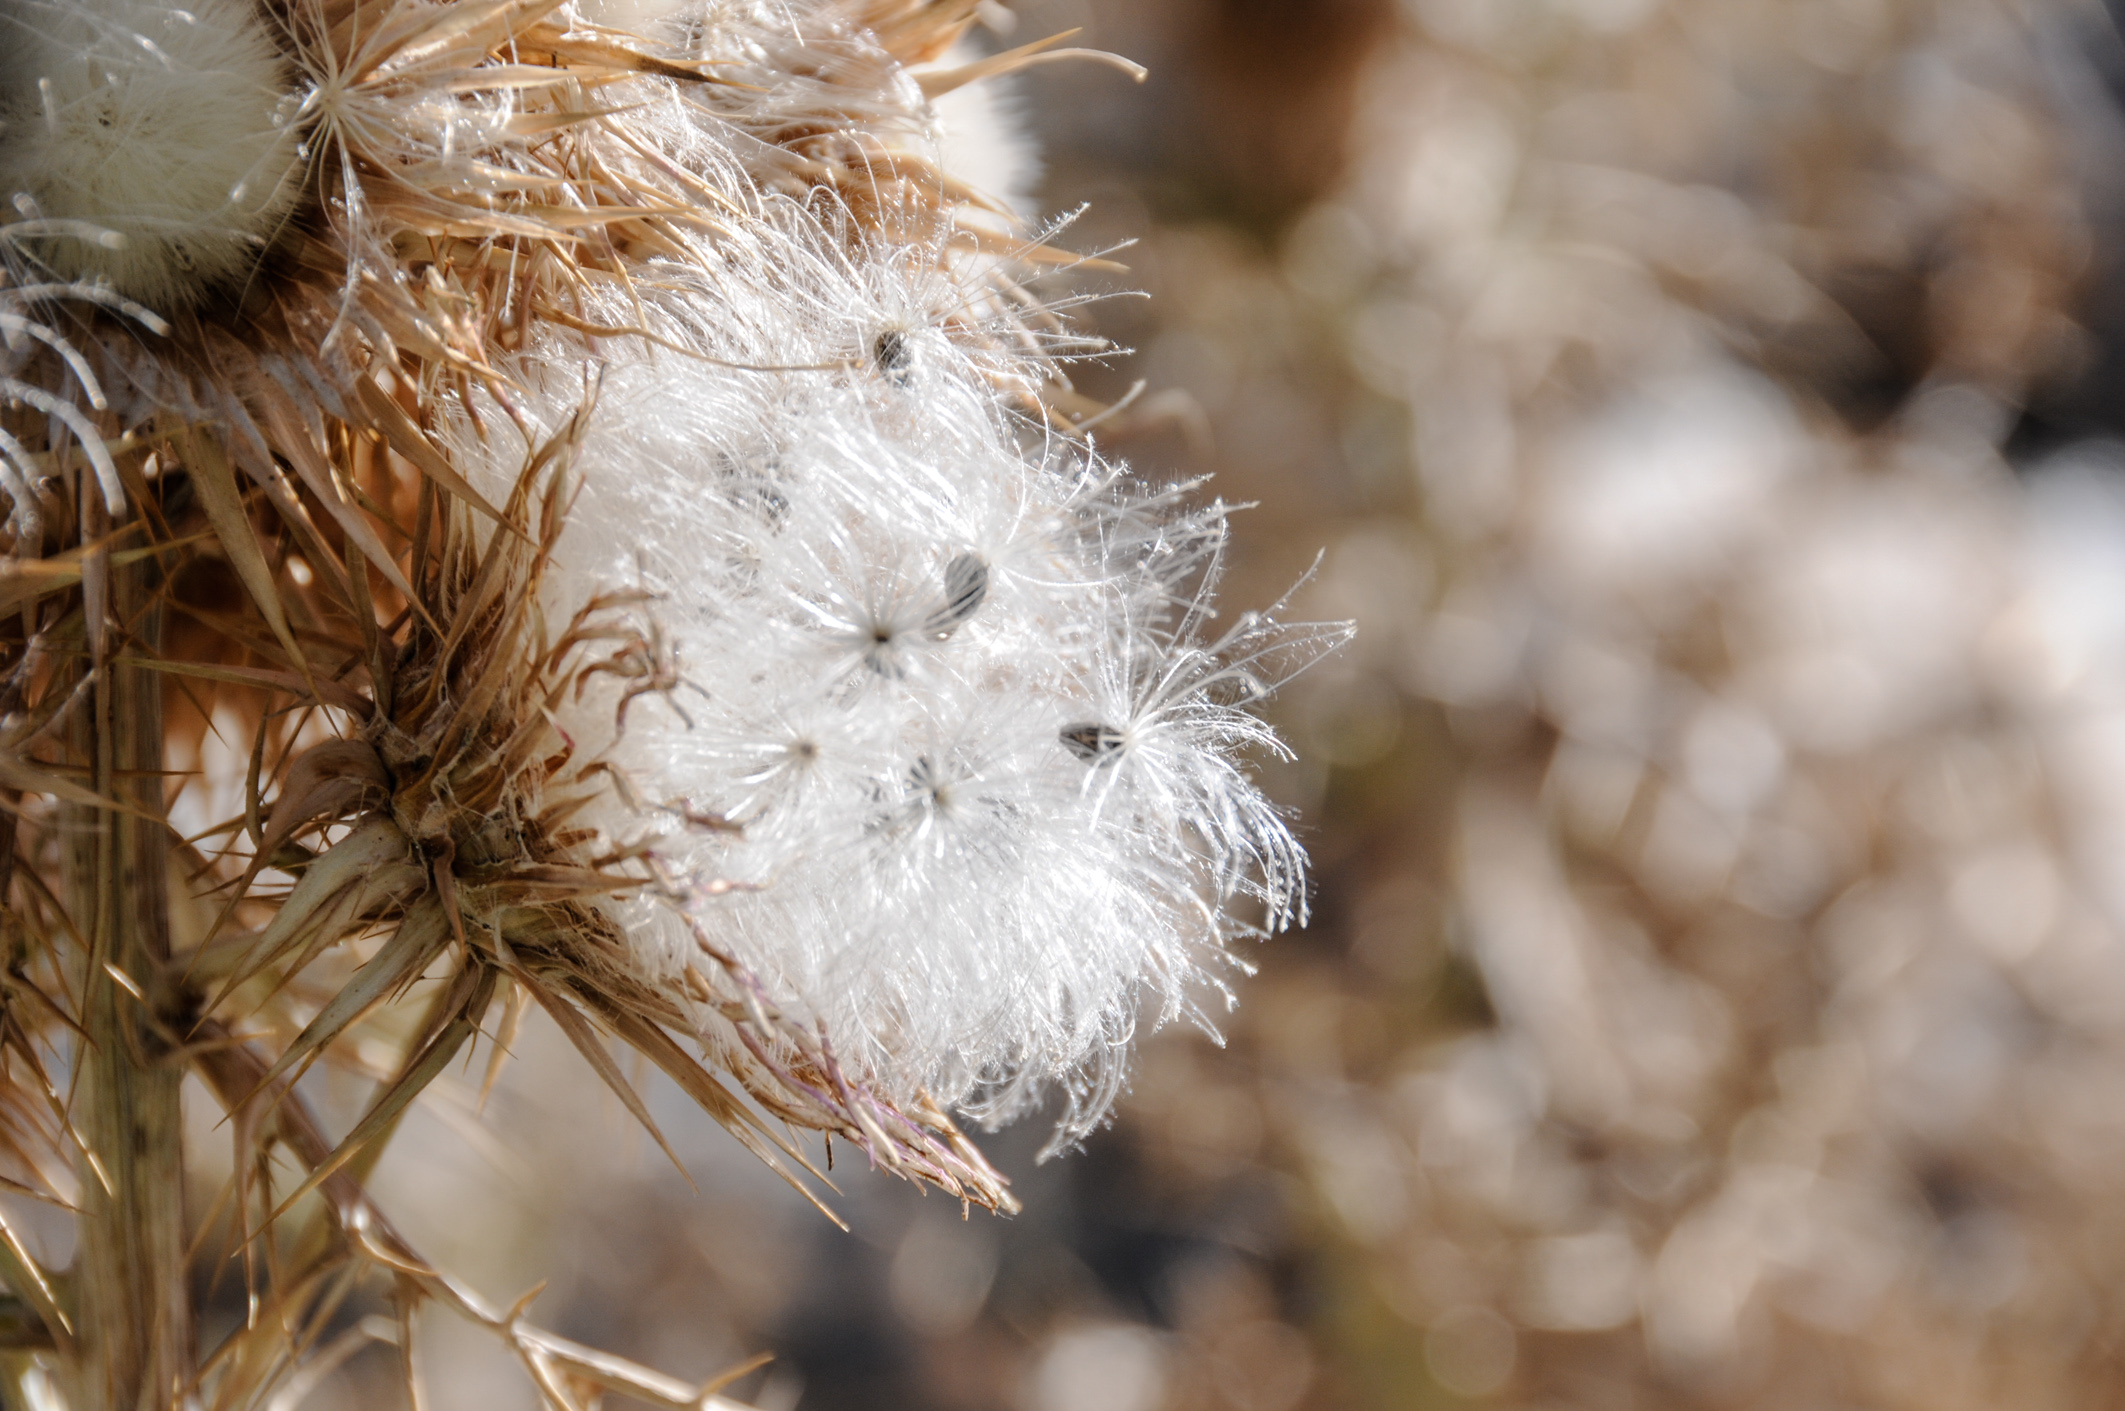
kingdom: Plantae
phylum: Tracheophyta
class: Magnoliopsida
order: Asterales
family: Asteraceae
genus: Ptilostemon
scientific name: Ptilostemon afer
